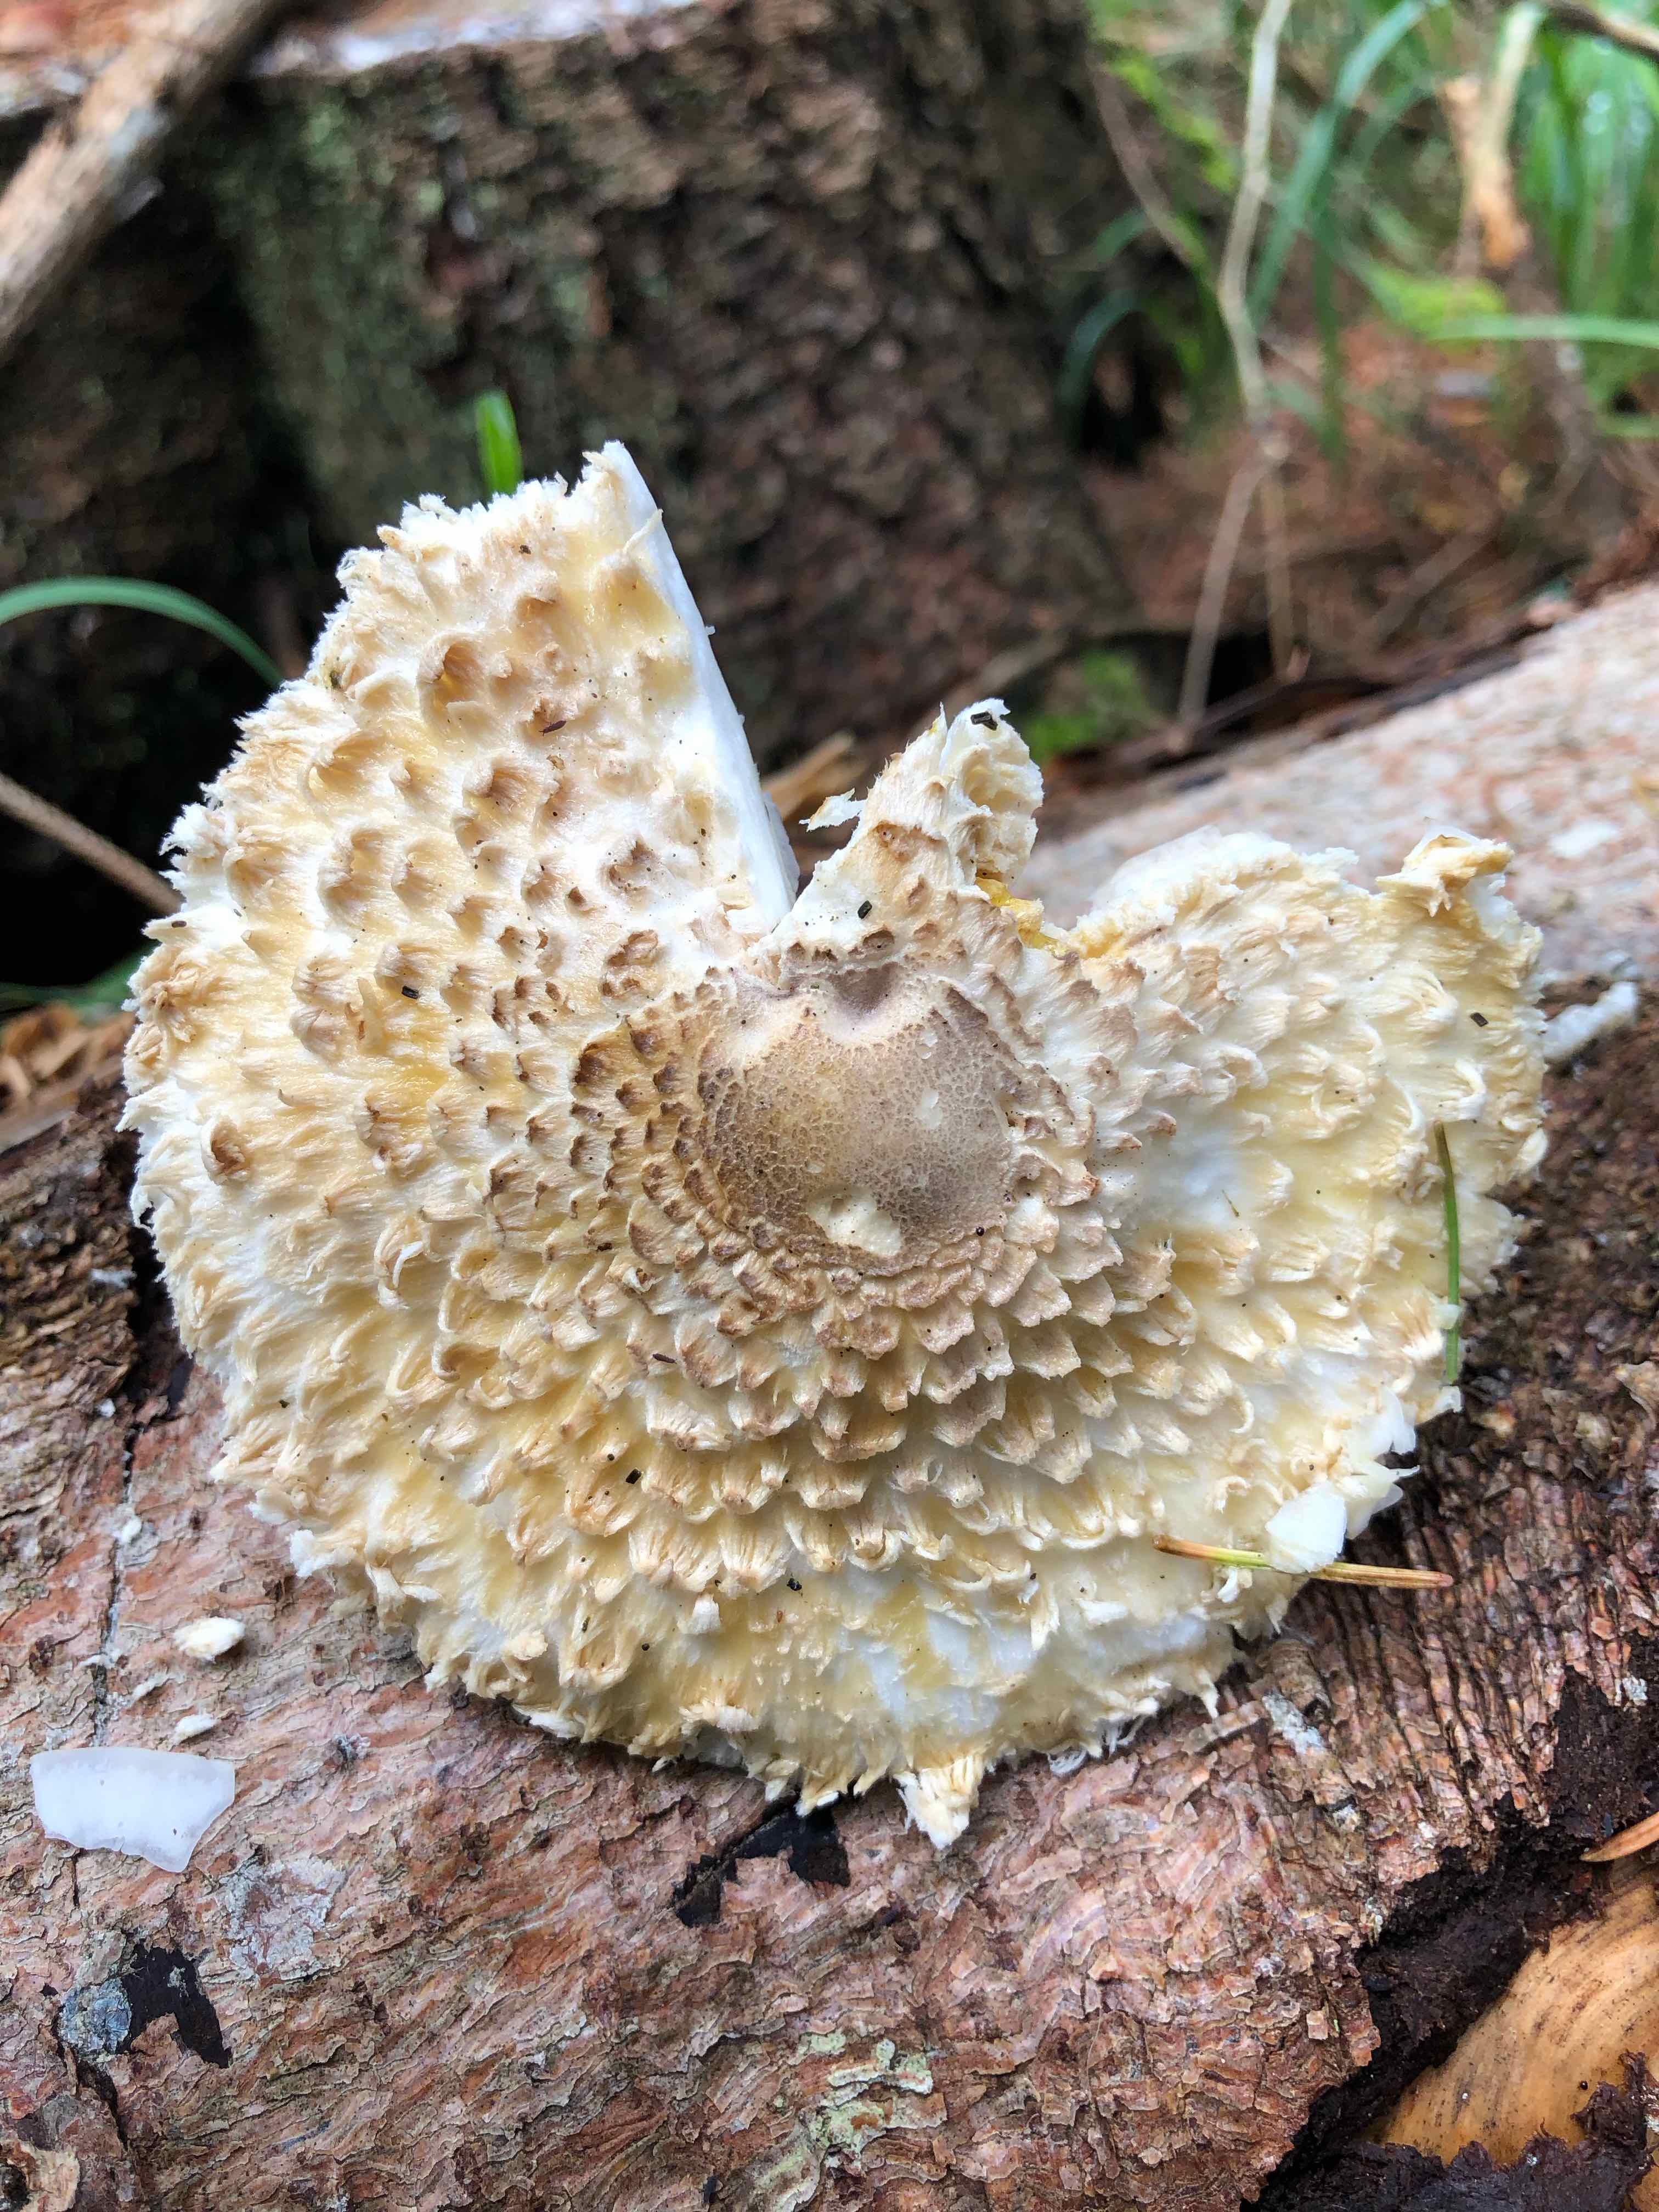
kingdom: Fungi
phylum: Basidiomycota
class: Agaricomycetes
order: Agaricales
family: Agaricaceae
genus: Leucoagaricus
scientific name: Leucoagaricus nympharum
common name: gran-silkehat
